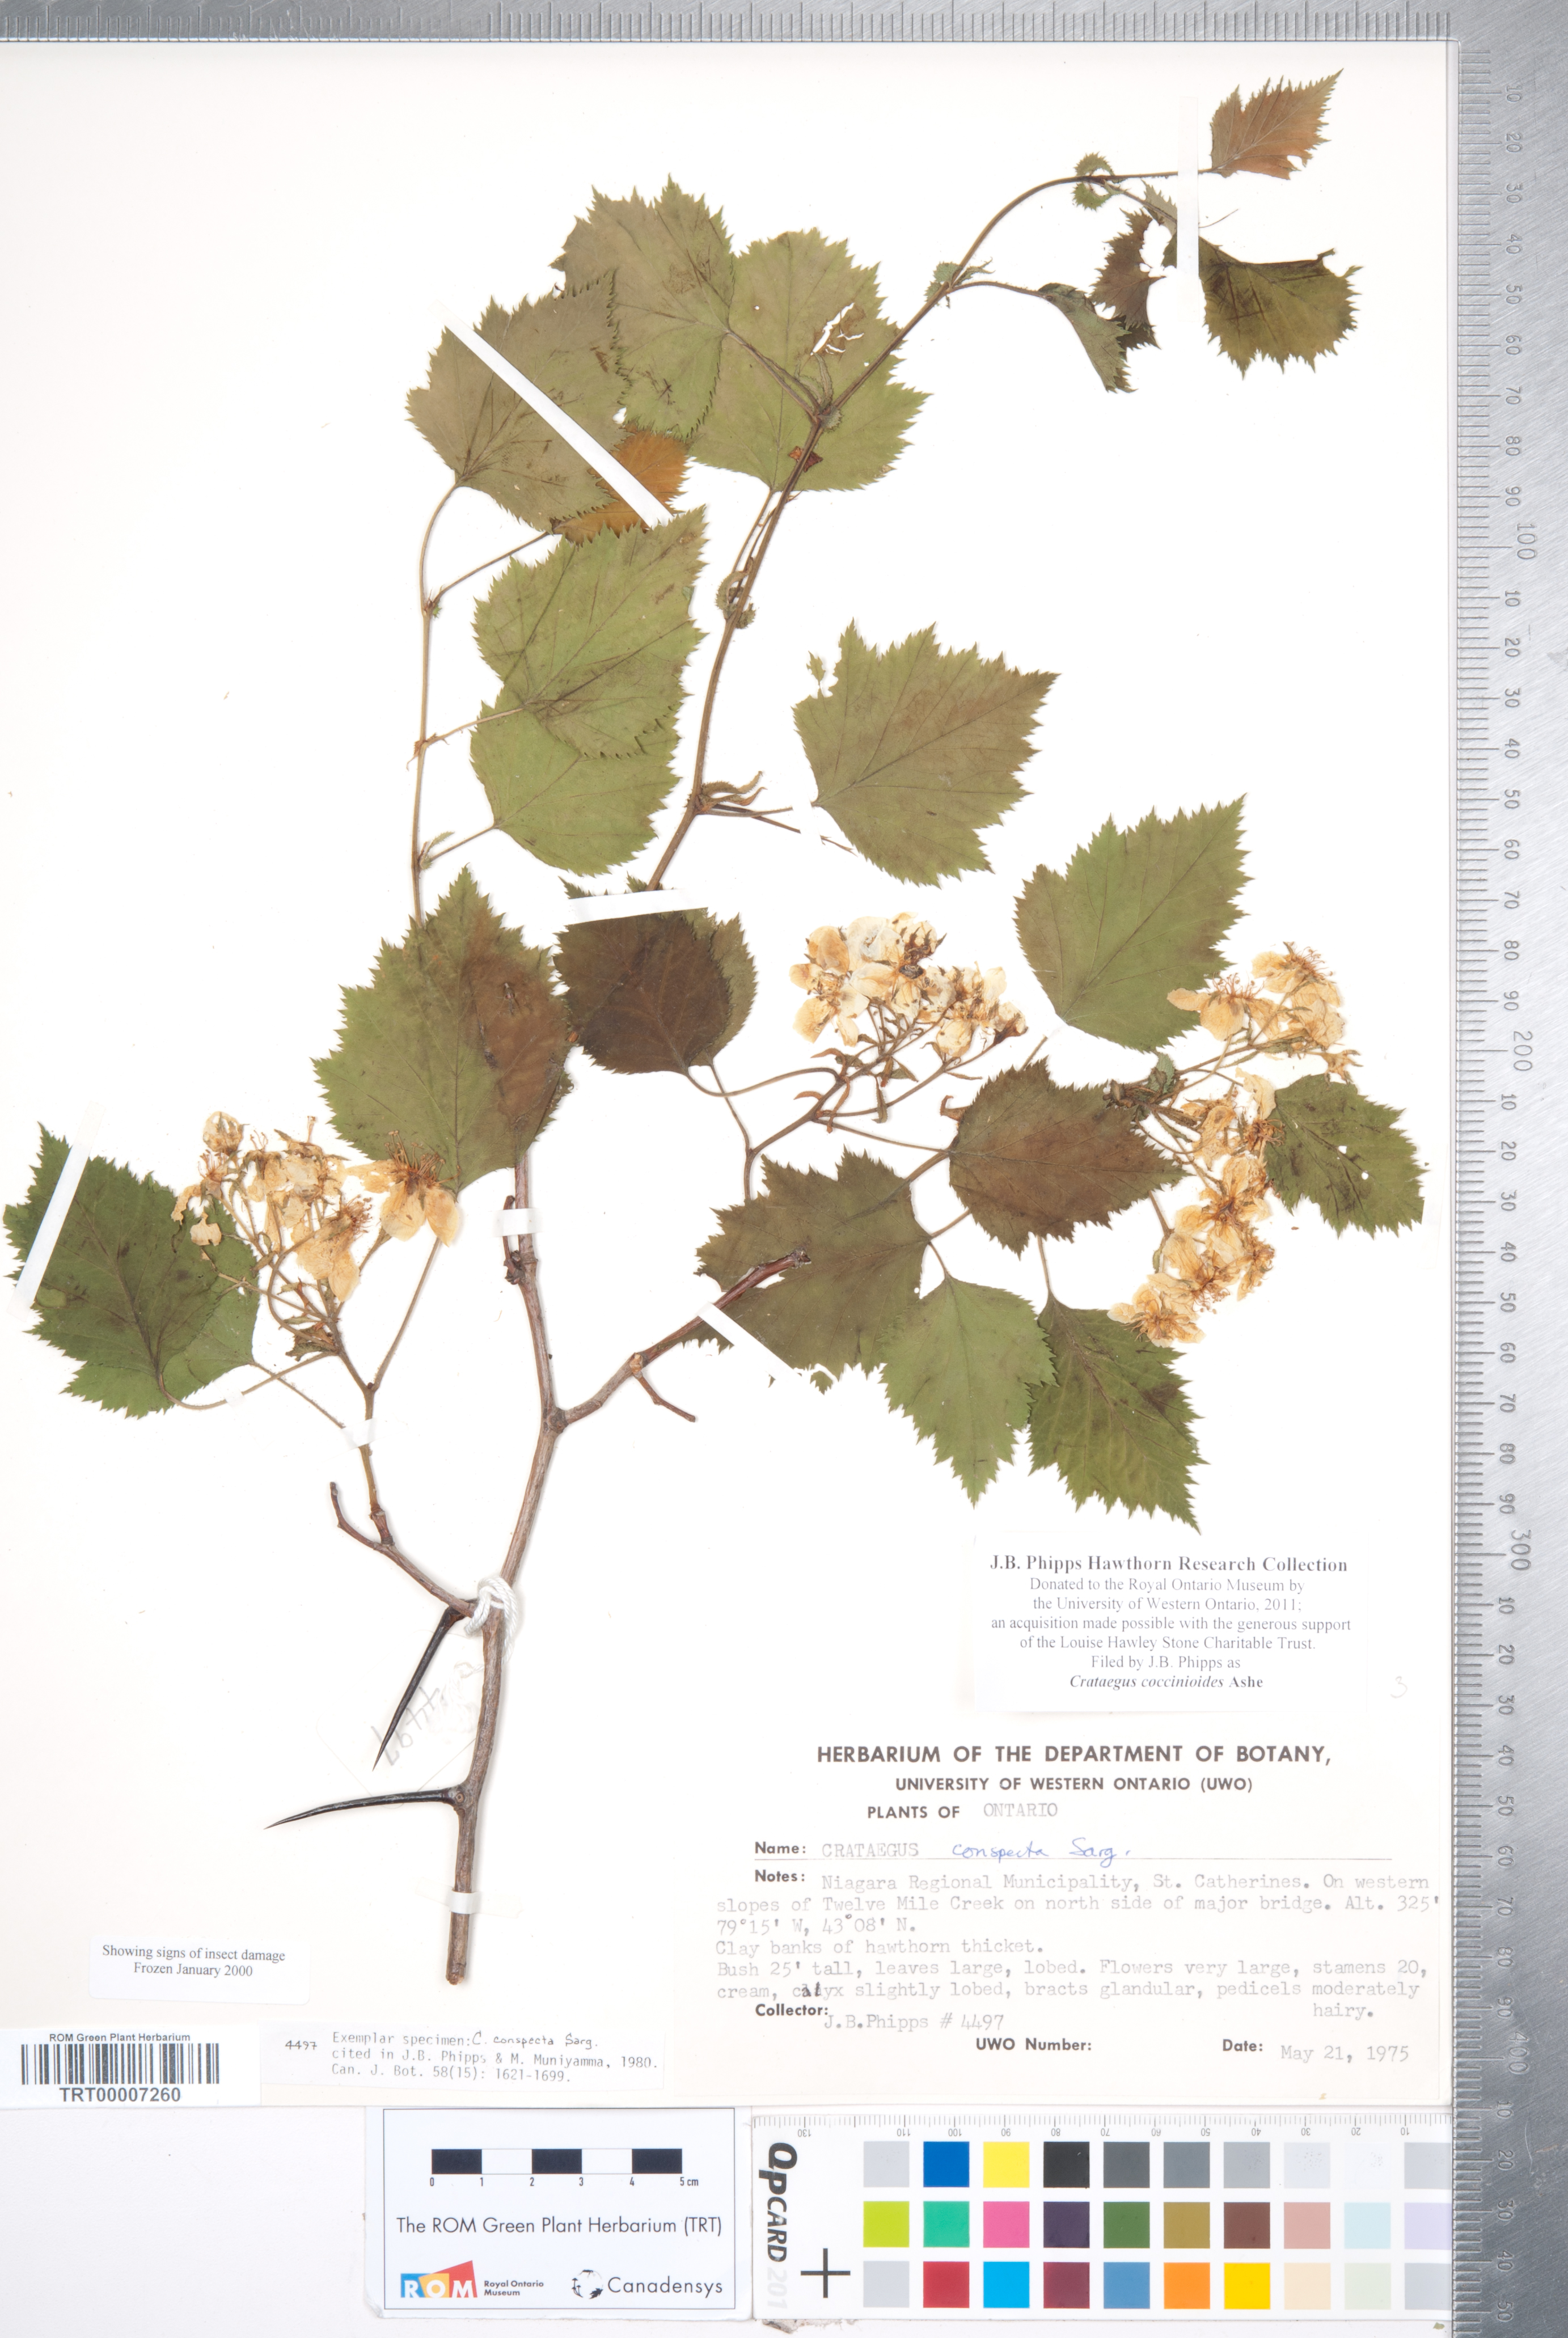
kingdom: Plantae
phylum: Tracheophyta
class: Magnoliopsida
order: Rosales
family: Rosaceae
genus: Crataegus
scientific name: Crataegus coccinioides
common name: Large-flowered cockspurthorn
